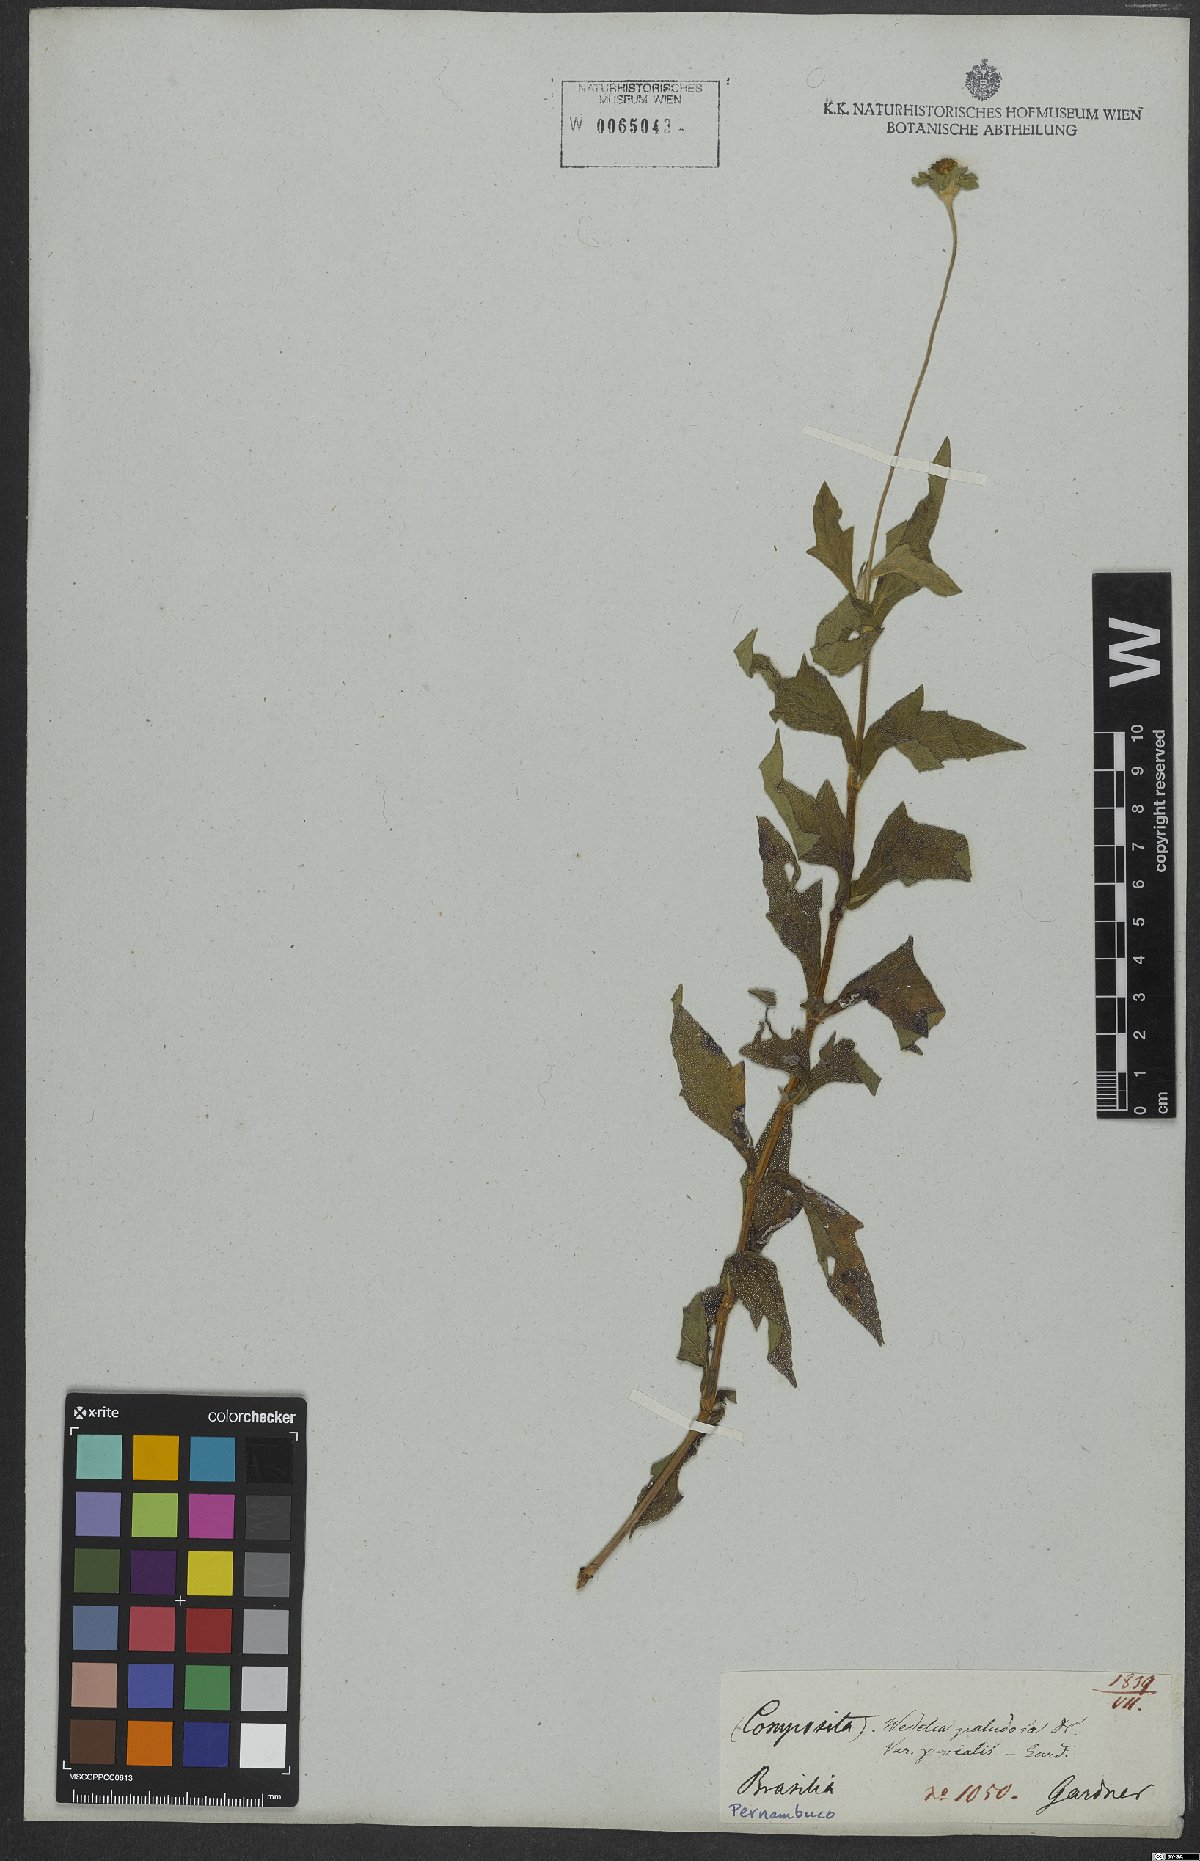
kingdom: Plantae
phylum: Tracheophyta
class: Magnoliopsida
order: Asterales
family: Asteraceae
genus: Sphagneticola
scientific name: Sphagneticola trilobata
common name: Bay biscayne creeping-oxeye
